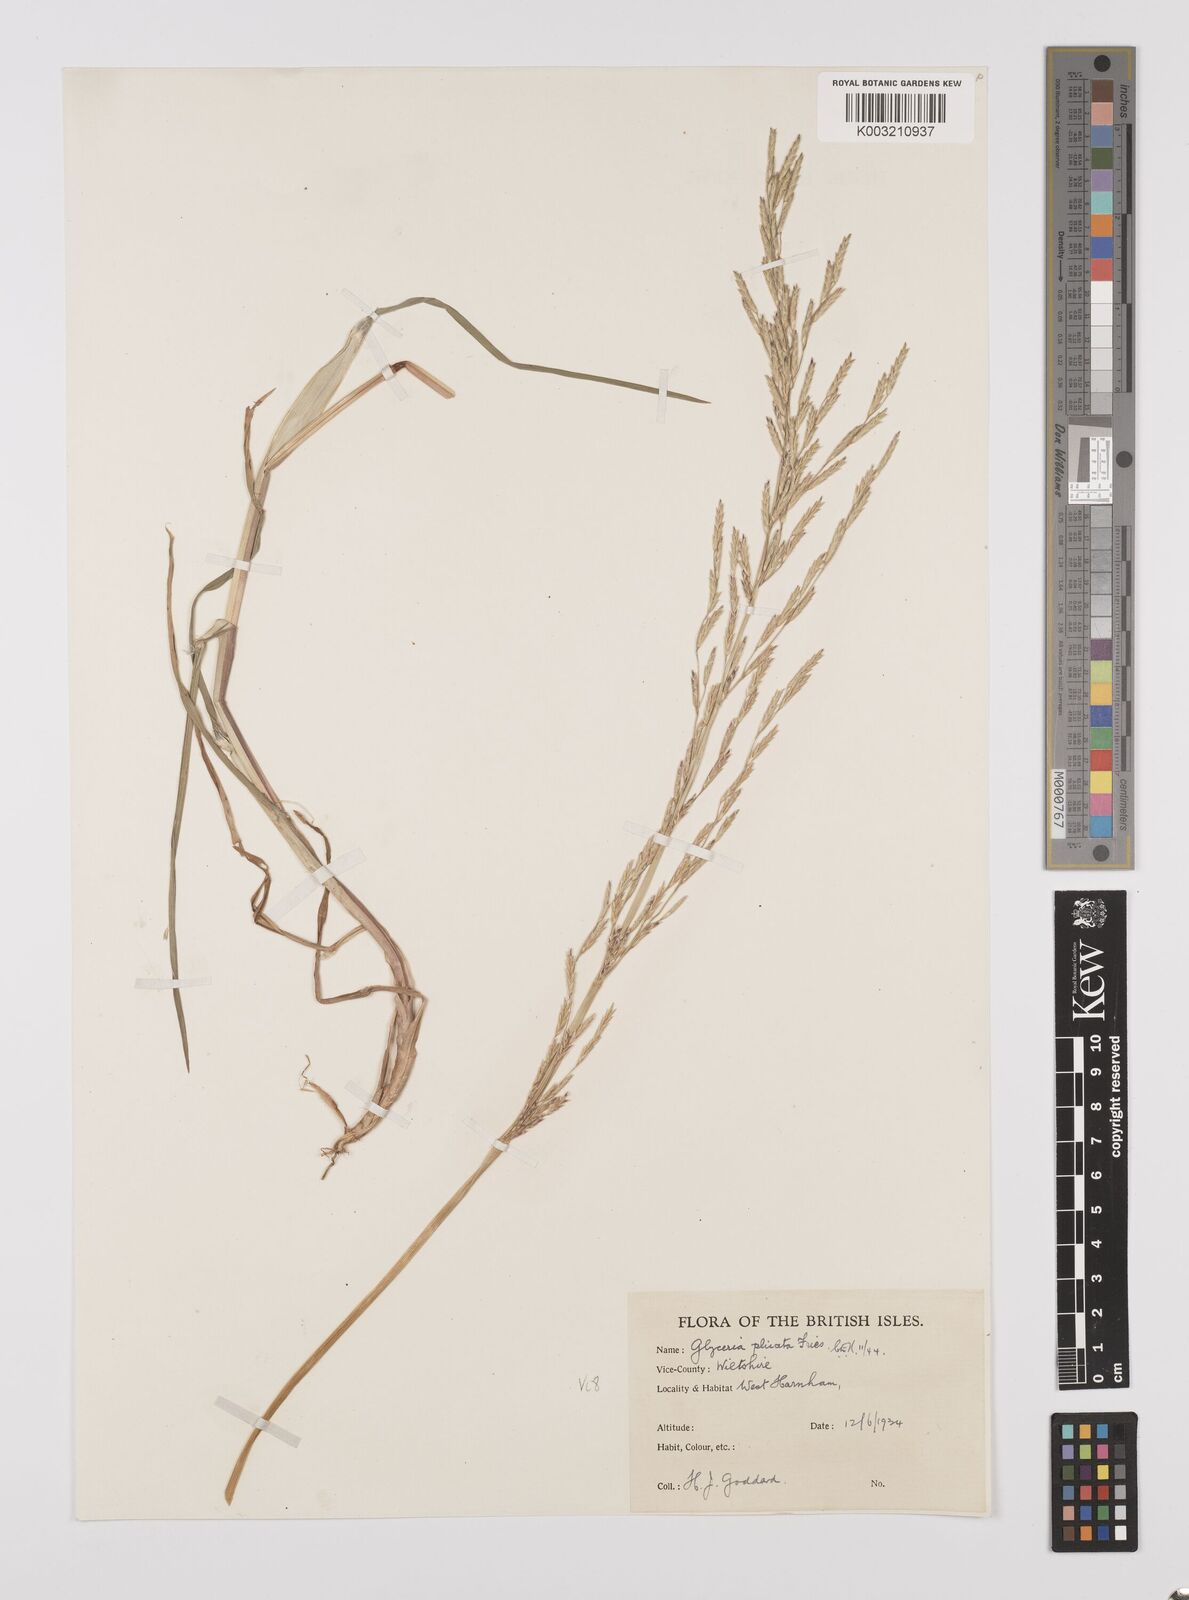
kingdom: Plantae
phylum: Tracheophyta
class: Liliopsida
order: Poales
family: Poaceae
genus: Glyceria
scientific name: Glyceria notata
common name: Plicate sweet-grass
